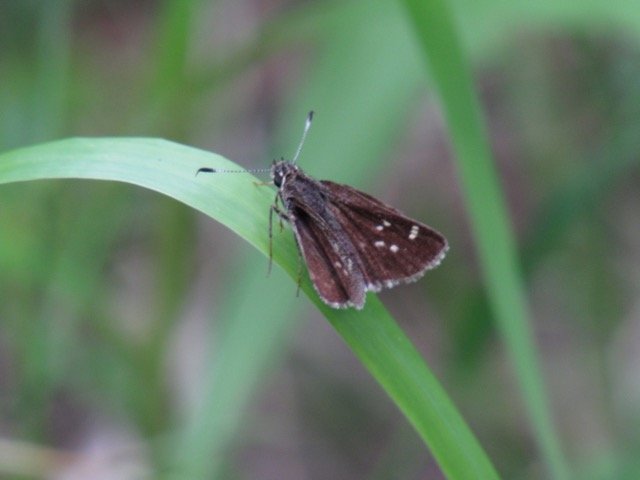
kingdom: Animalia
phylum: Arthropoda
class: Insecta
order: Lepidoptera
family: Hesperiidae
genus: Vernia
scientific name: Vernia verna
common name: Little Glassywing
